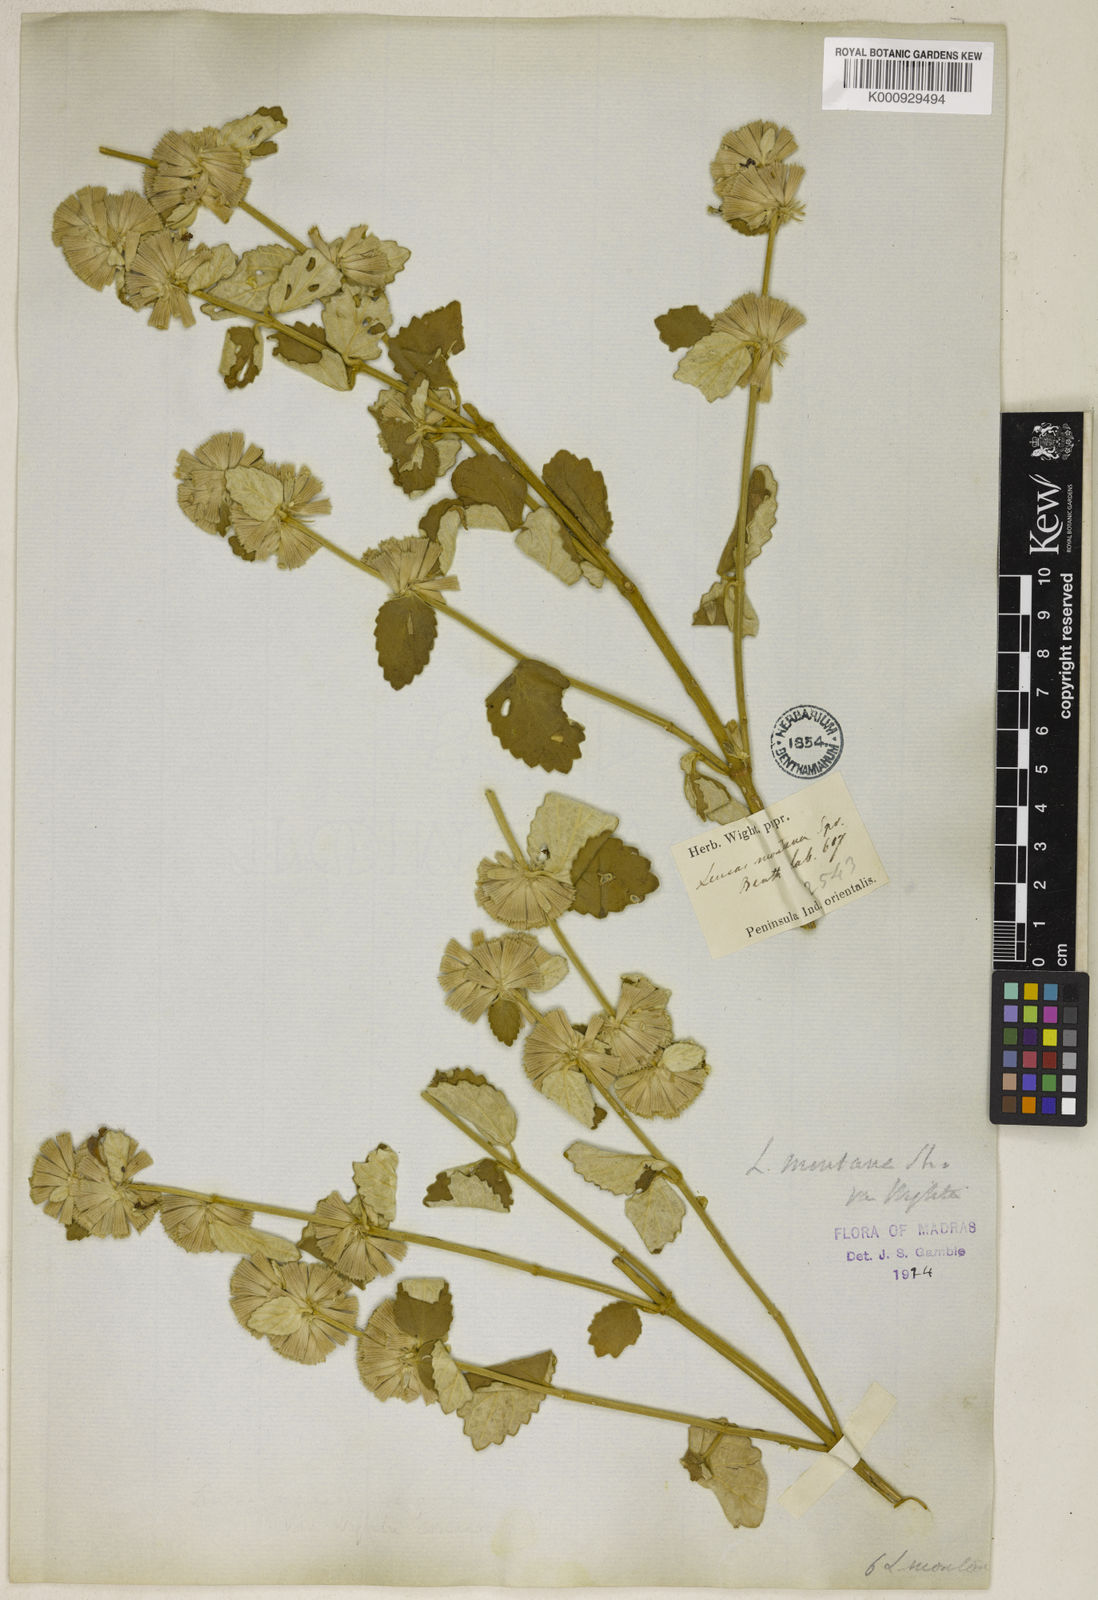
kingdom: Plantae
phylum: Tracheophyta
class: Magnoliopsida
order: Lamiales
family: Lamiaceae
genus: Leucas
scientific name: Leucas montana
